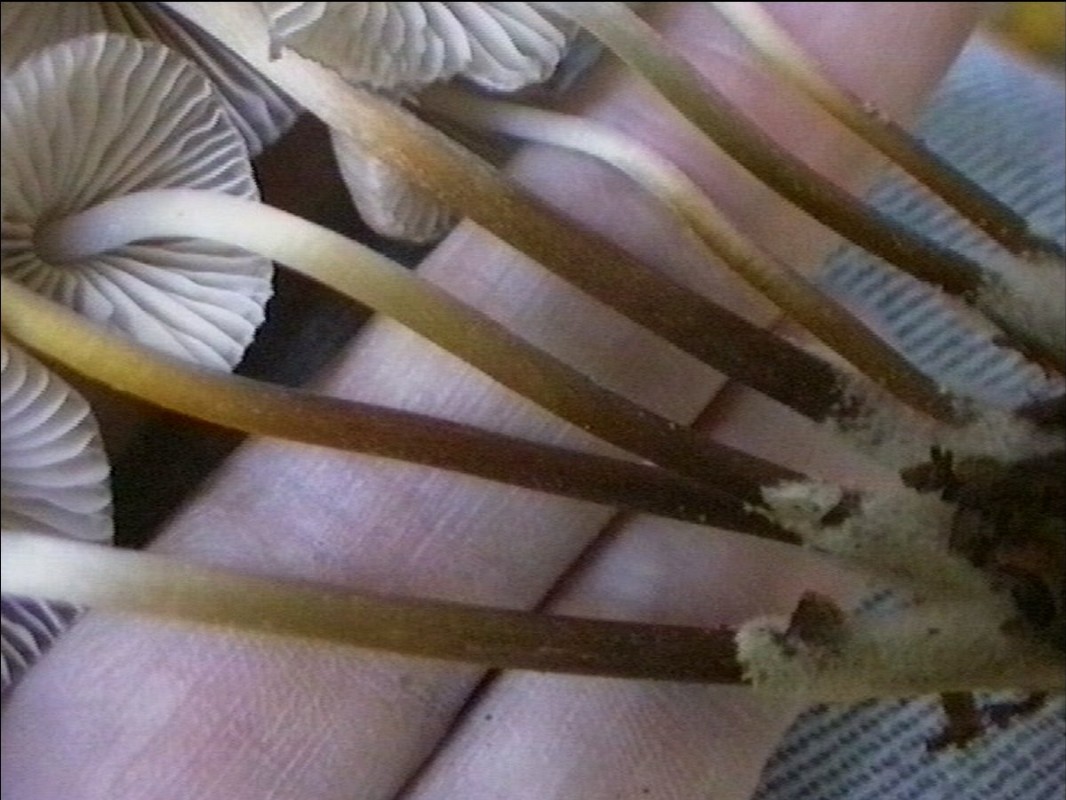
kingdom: Fungi
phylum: Basidiomycota
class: Agaricomycetes
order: Agaricales
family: Mycenaceae
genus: Mycena
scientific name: Mycena inclinata
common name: nikkende huesvamp
